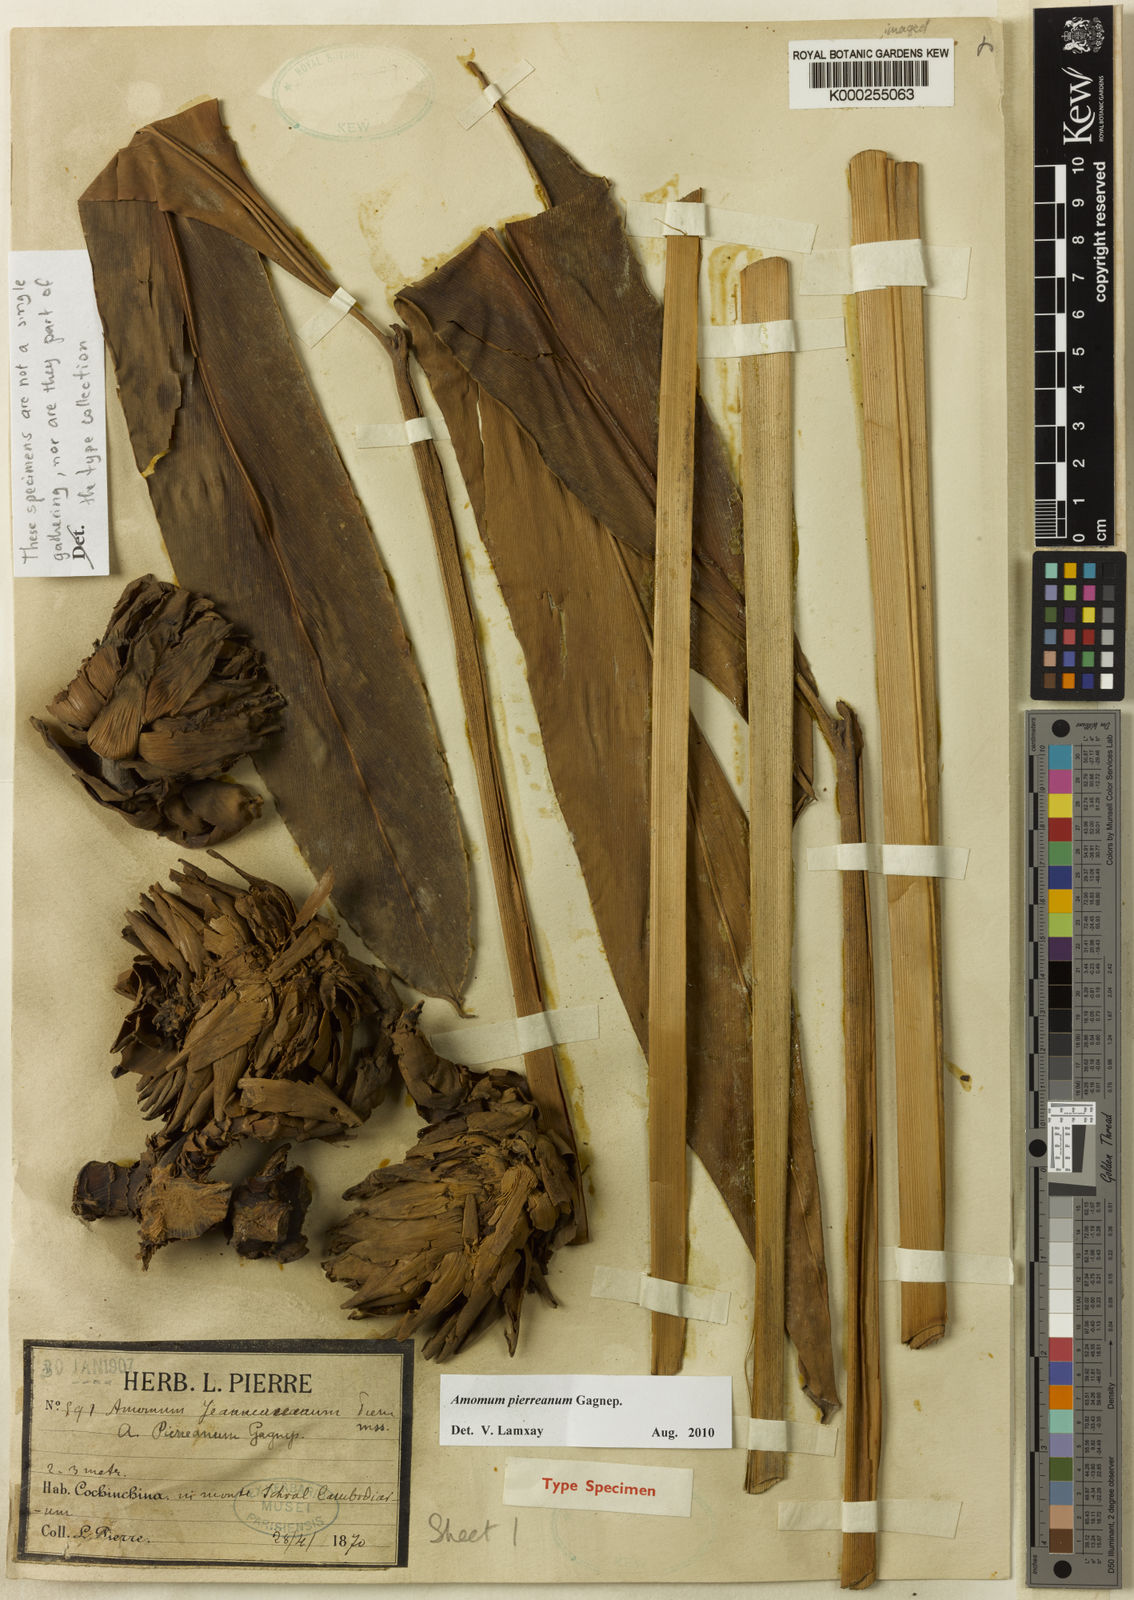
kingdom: Plantae
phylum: Tracheophyta
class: Liliopsida
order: Zingiberales
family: Zingiberaceae
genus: Conamomum
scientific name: Conamomum pierreanum
